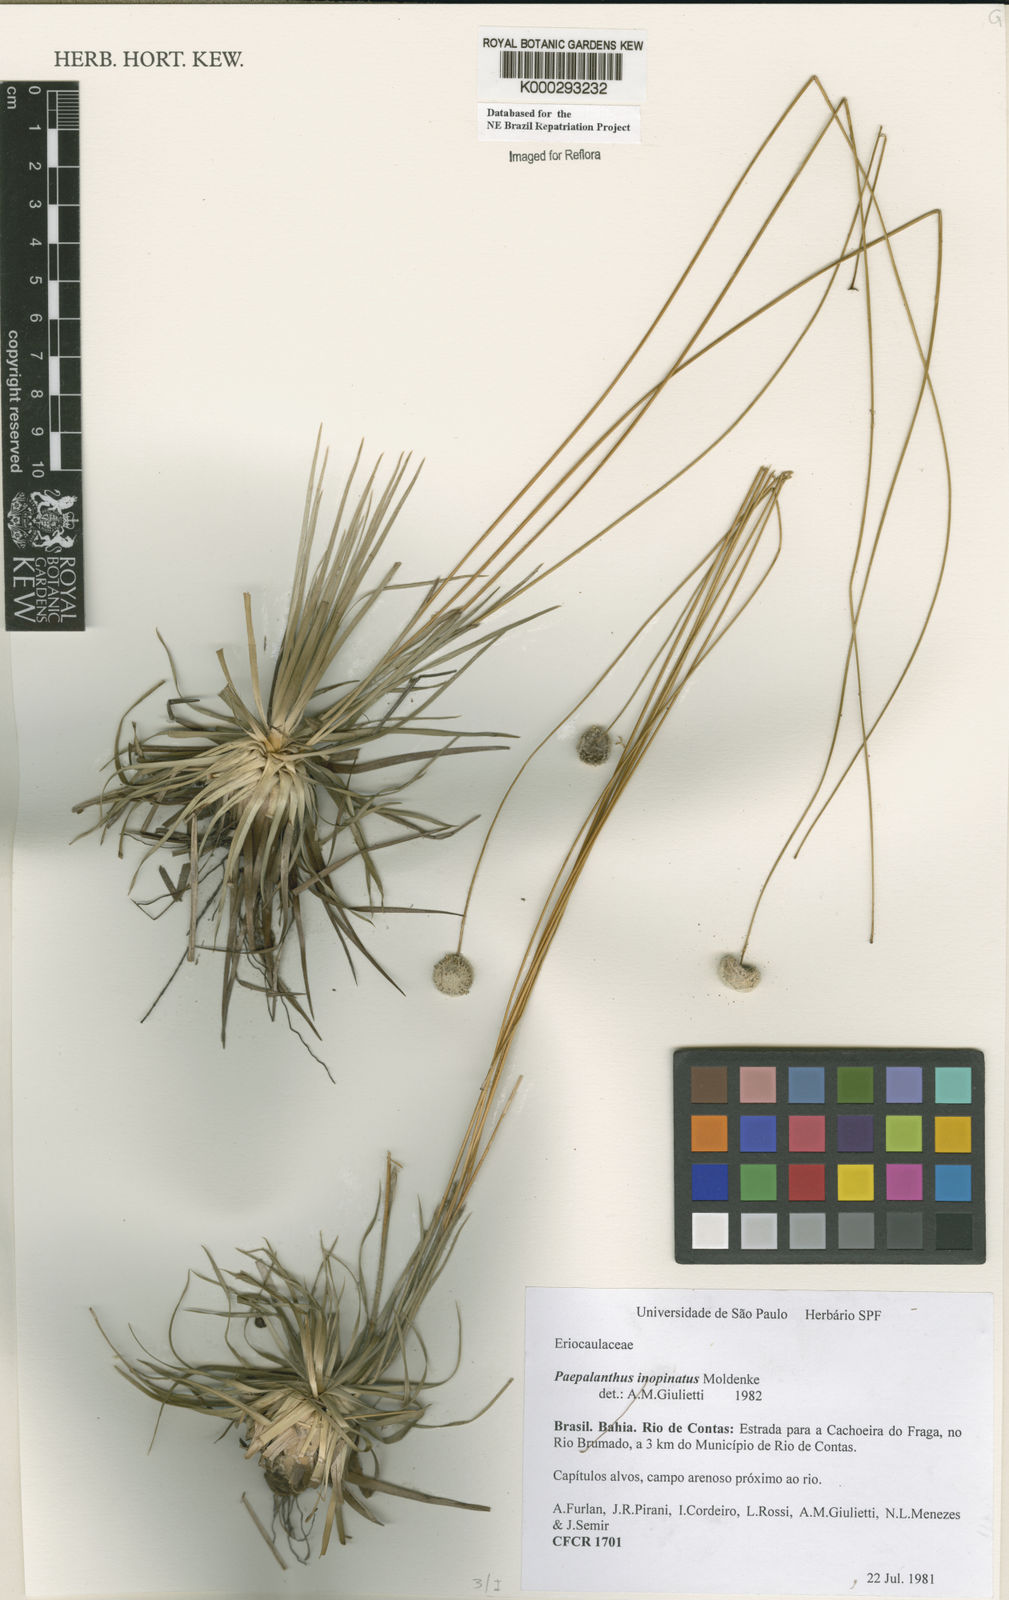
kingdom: Plantae
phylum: Tracheophyta
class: Liliopsida
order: Poales
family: Eriocaulaceae
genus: Paepalanthus
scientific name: Paepalanthus inopinatus
